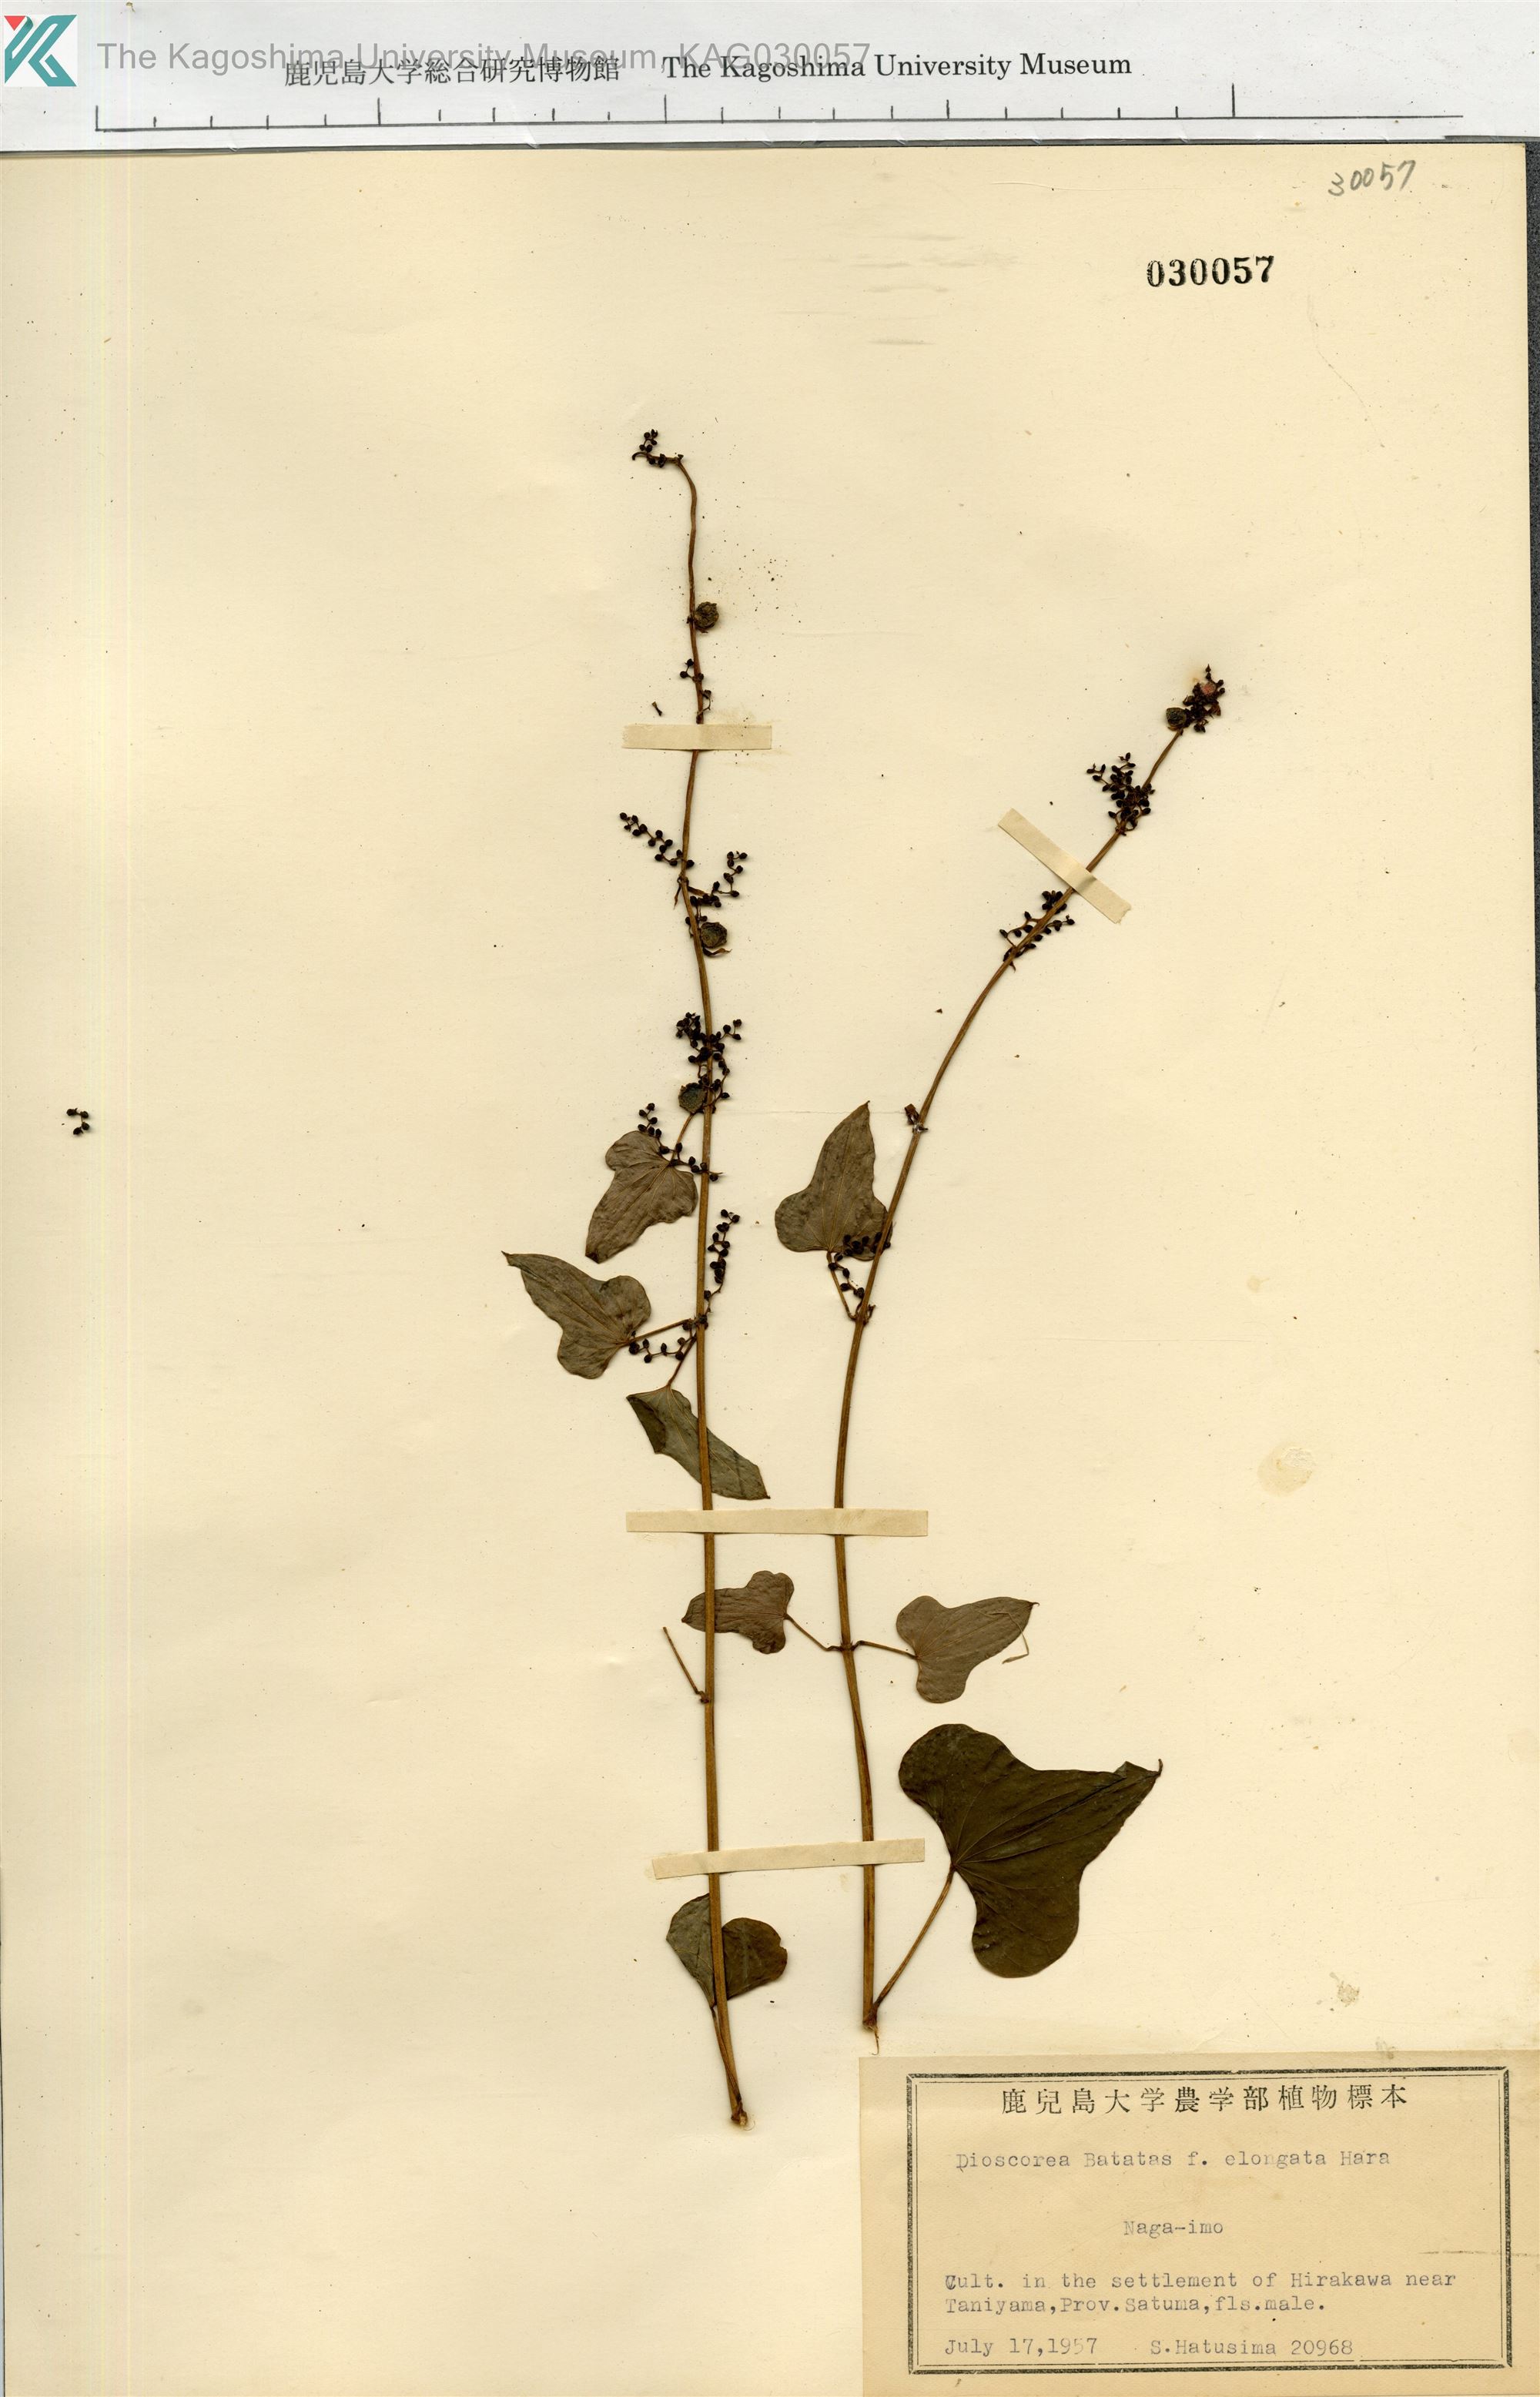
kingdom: Plantae
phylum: Tracheophyta
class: Liliopsida
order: Dioscoreales
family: Dioscoreaceae
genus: Dioscorea
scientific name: Dioscorea polystachya
